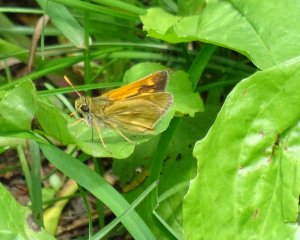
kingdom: Animalia
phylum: Arthropoda
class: Insecta
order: Lepidoptera
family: Hesperiidae
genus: Polites
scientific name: Polites
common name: Long Dash Skipper
